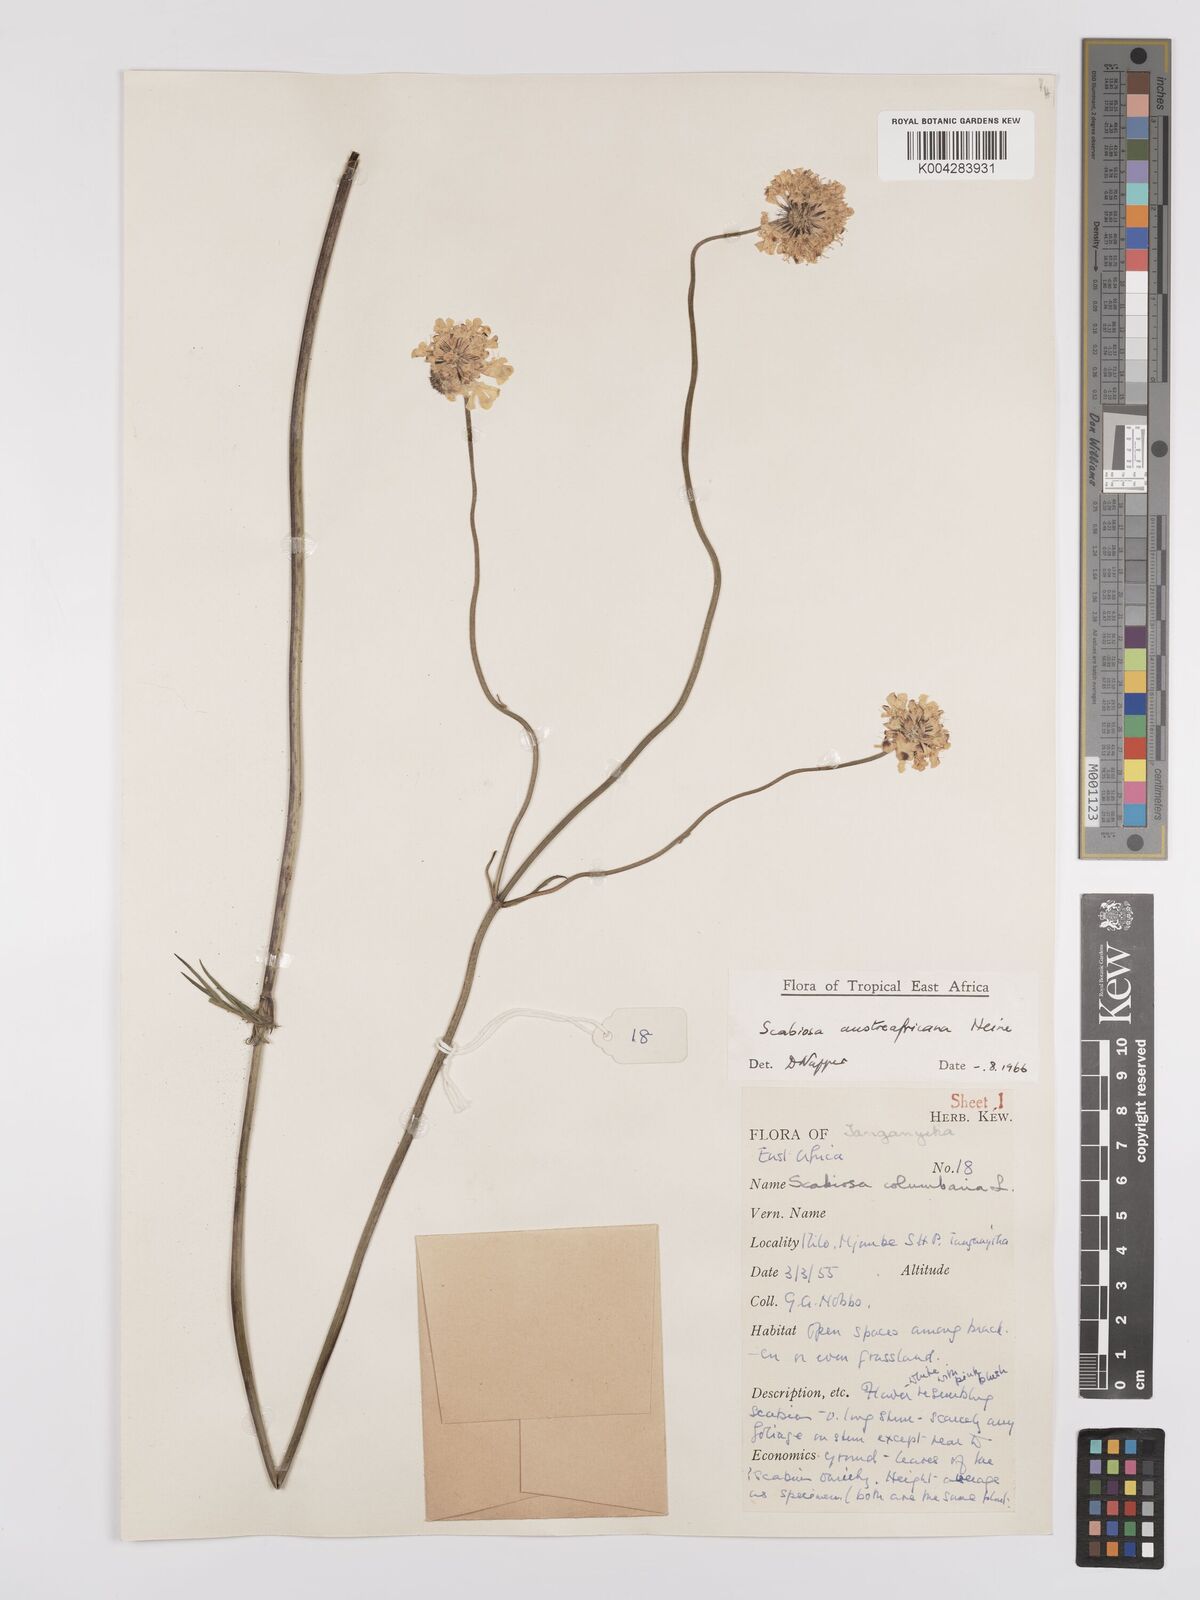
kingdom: Plantae
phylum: Tracheophyta
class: Magnoliopsida
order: Dipsacales
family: Caprifoliaceae
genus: Scabiosa
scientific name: Scabiosa austroafricana
